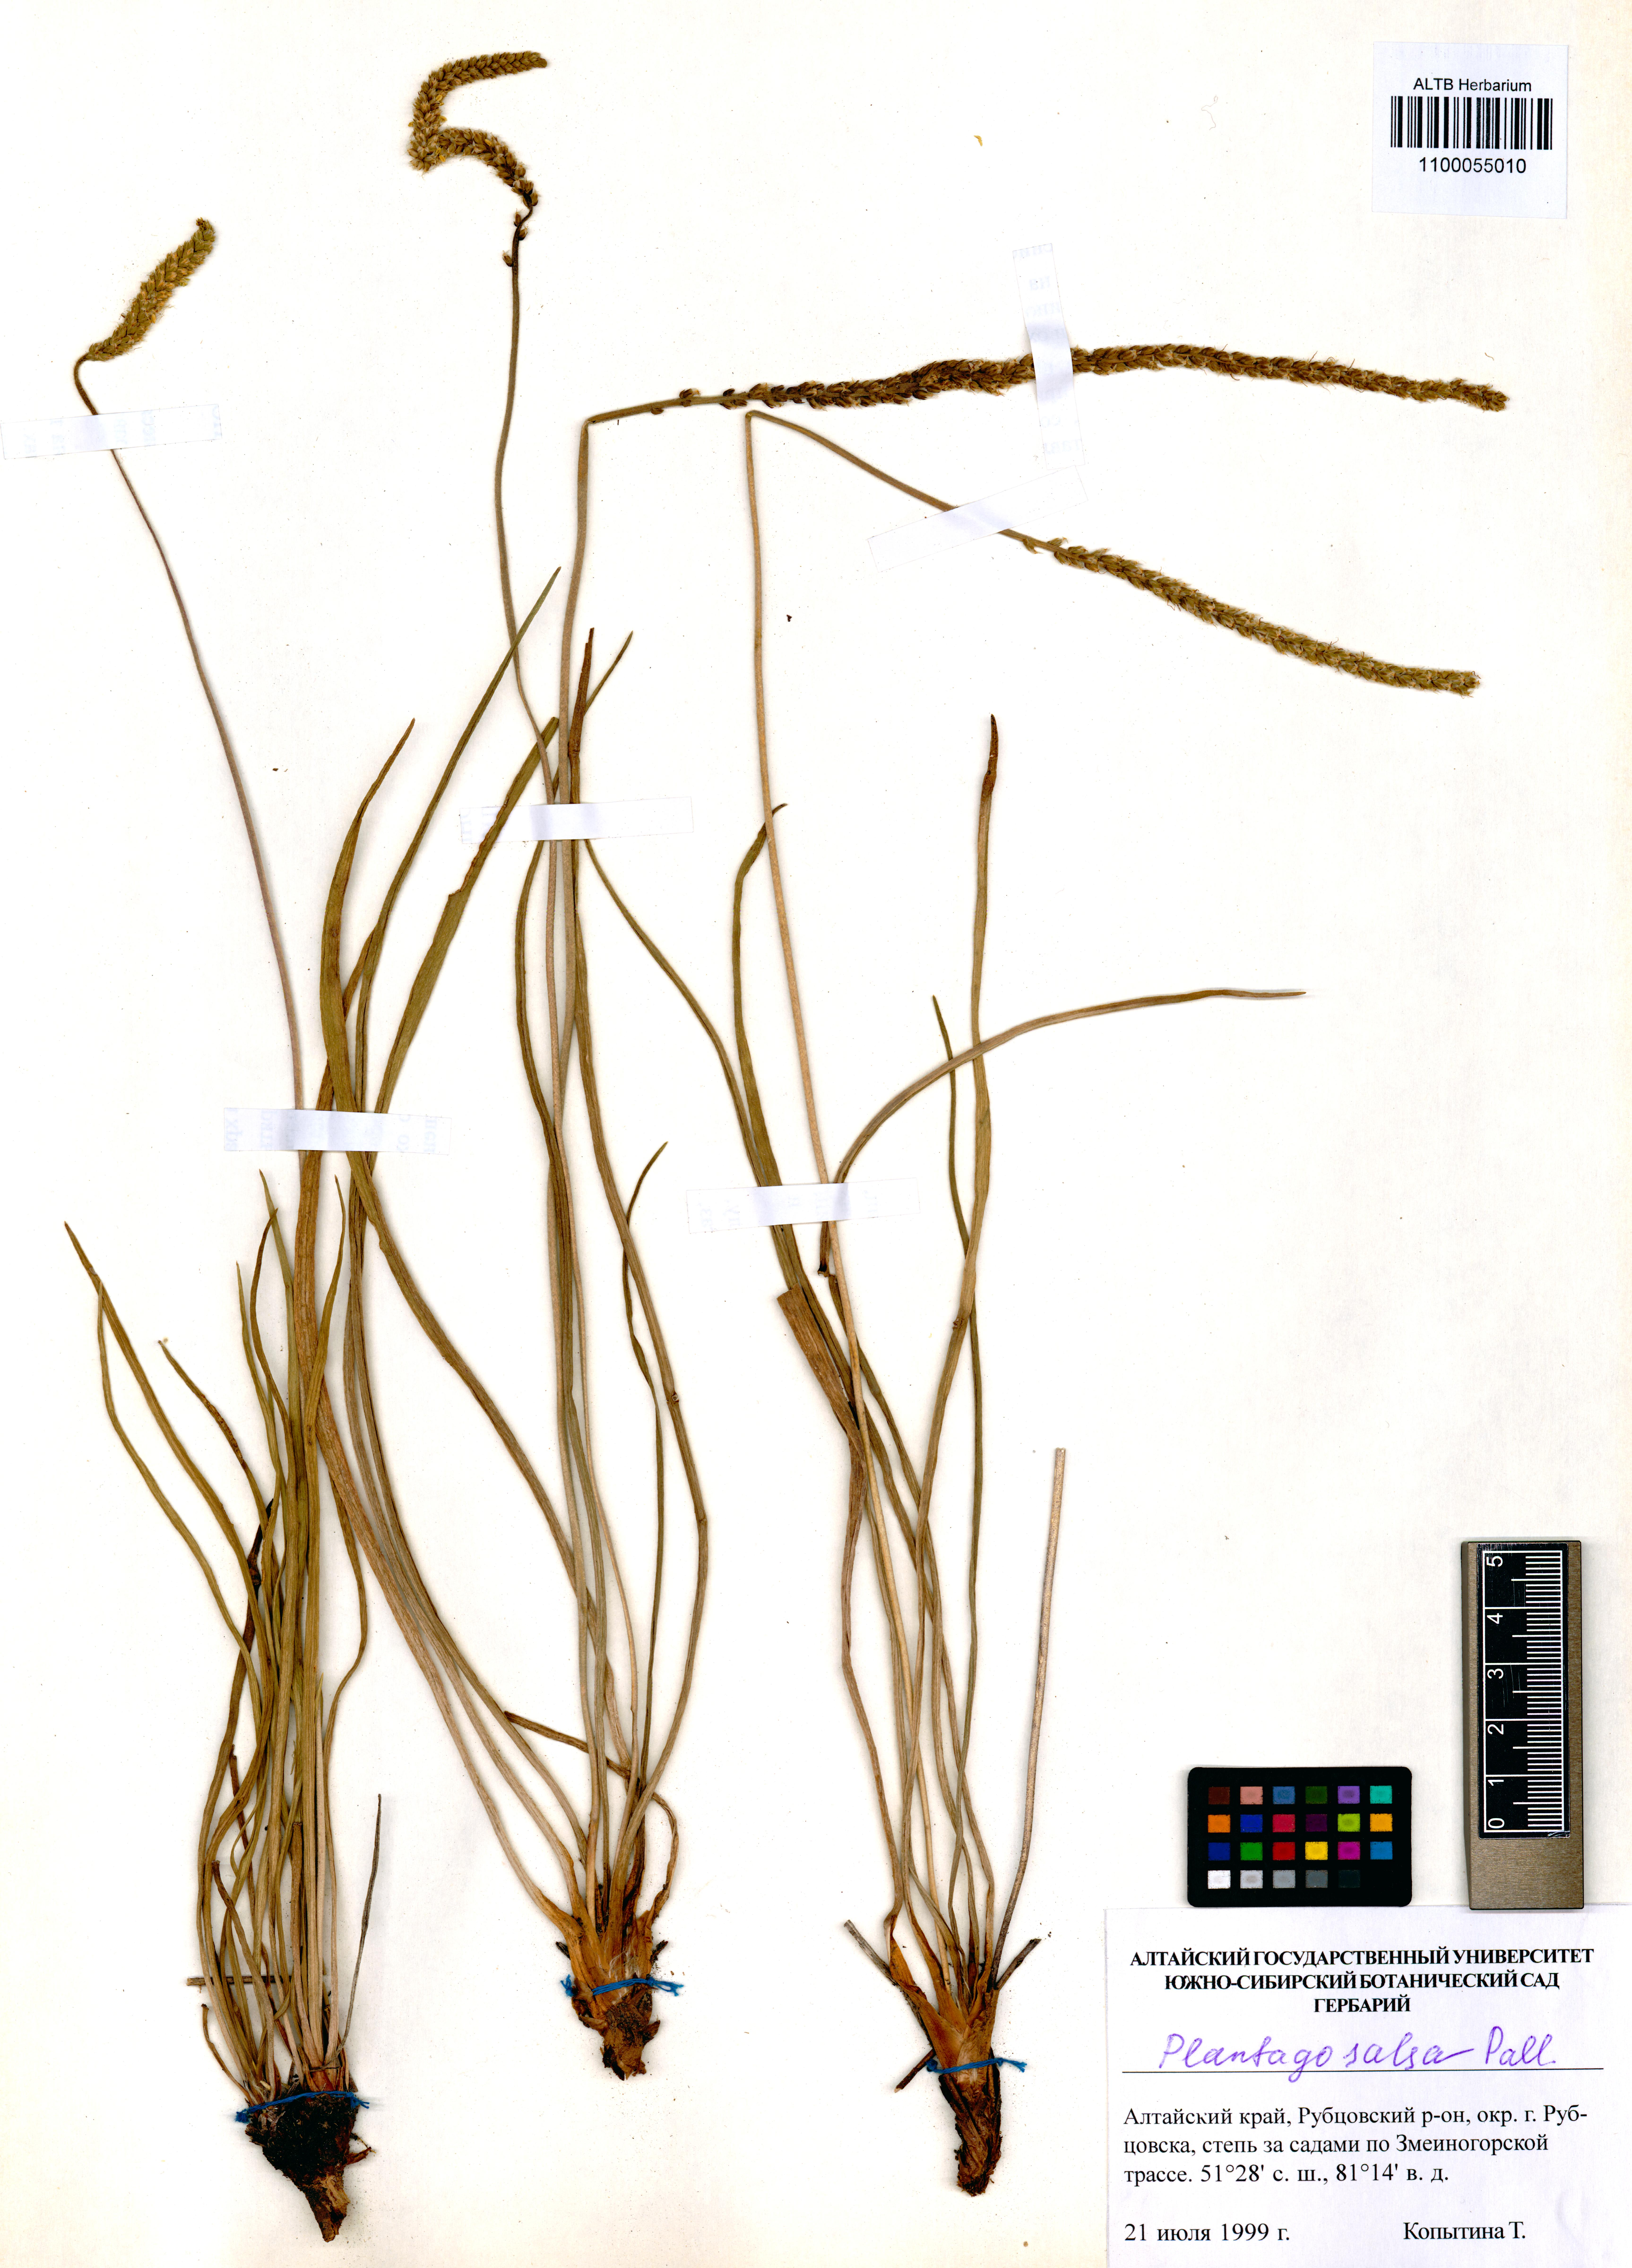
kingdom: Plantae
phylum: Tracheophyta
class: Magnoliopsida
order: Lamiales
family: Plantaginaceae
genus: Plantago
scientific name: Plantago salsa
